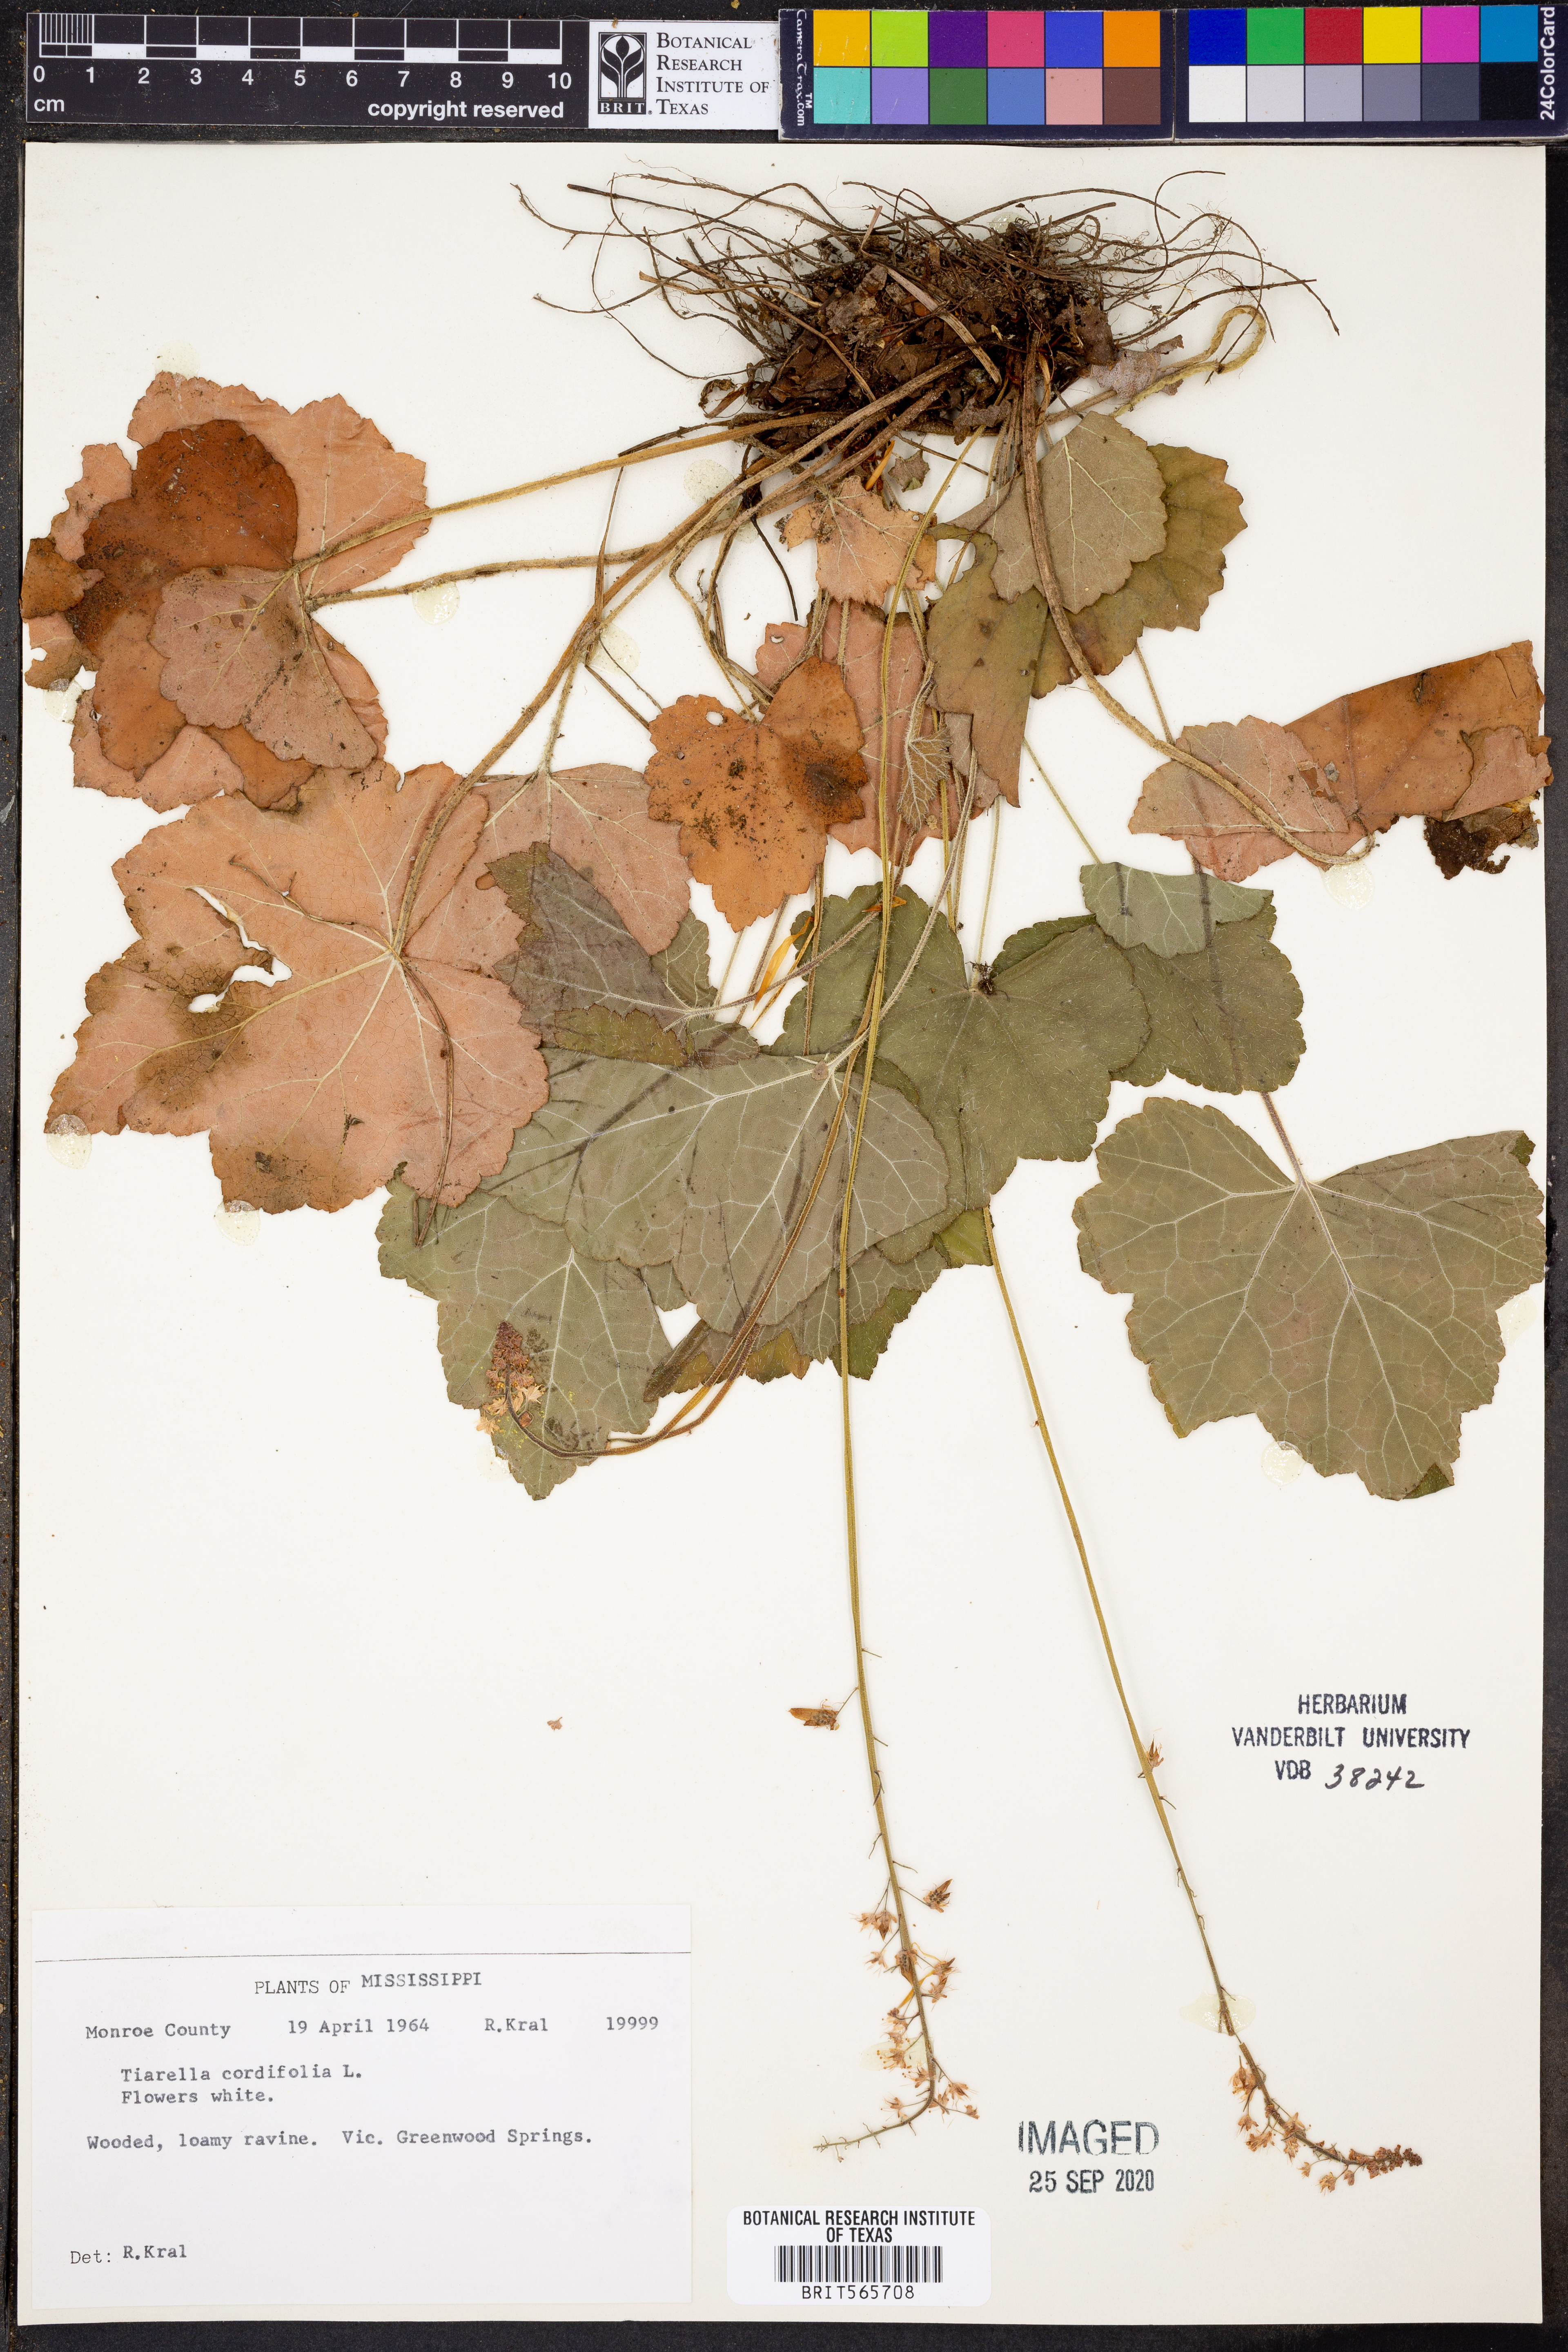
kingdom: Plantae
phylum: Tracheophyta
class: Magnoliopsida
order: Saxifragales
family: Saxifragaceae
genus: Tiarella
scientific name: Tiarella cordifolia
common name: Foamflower
